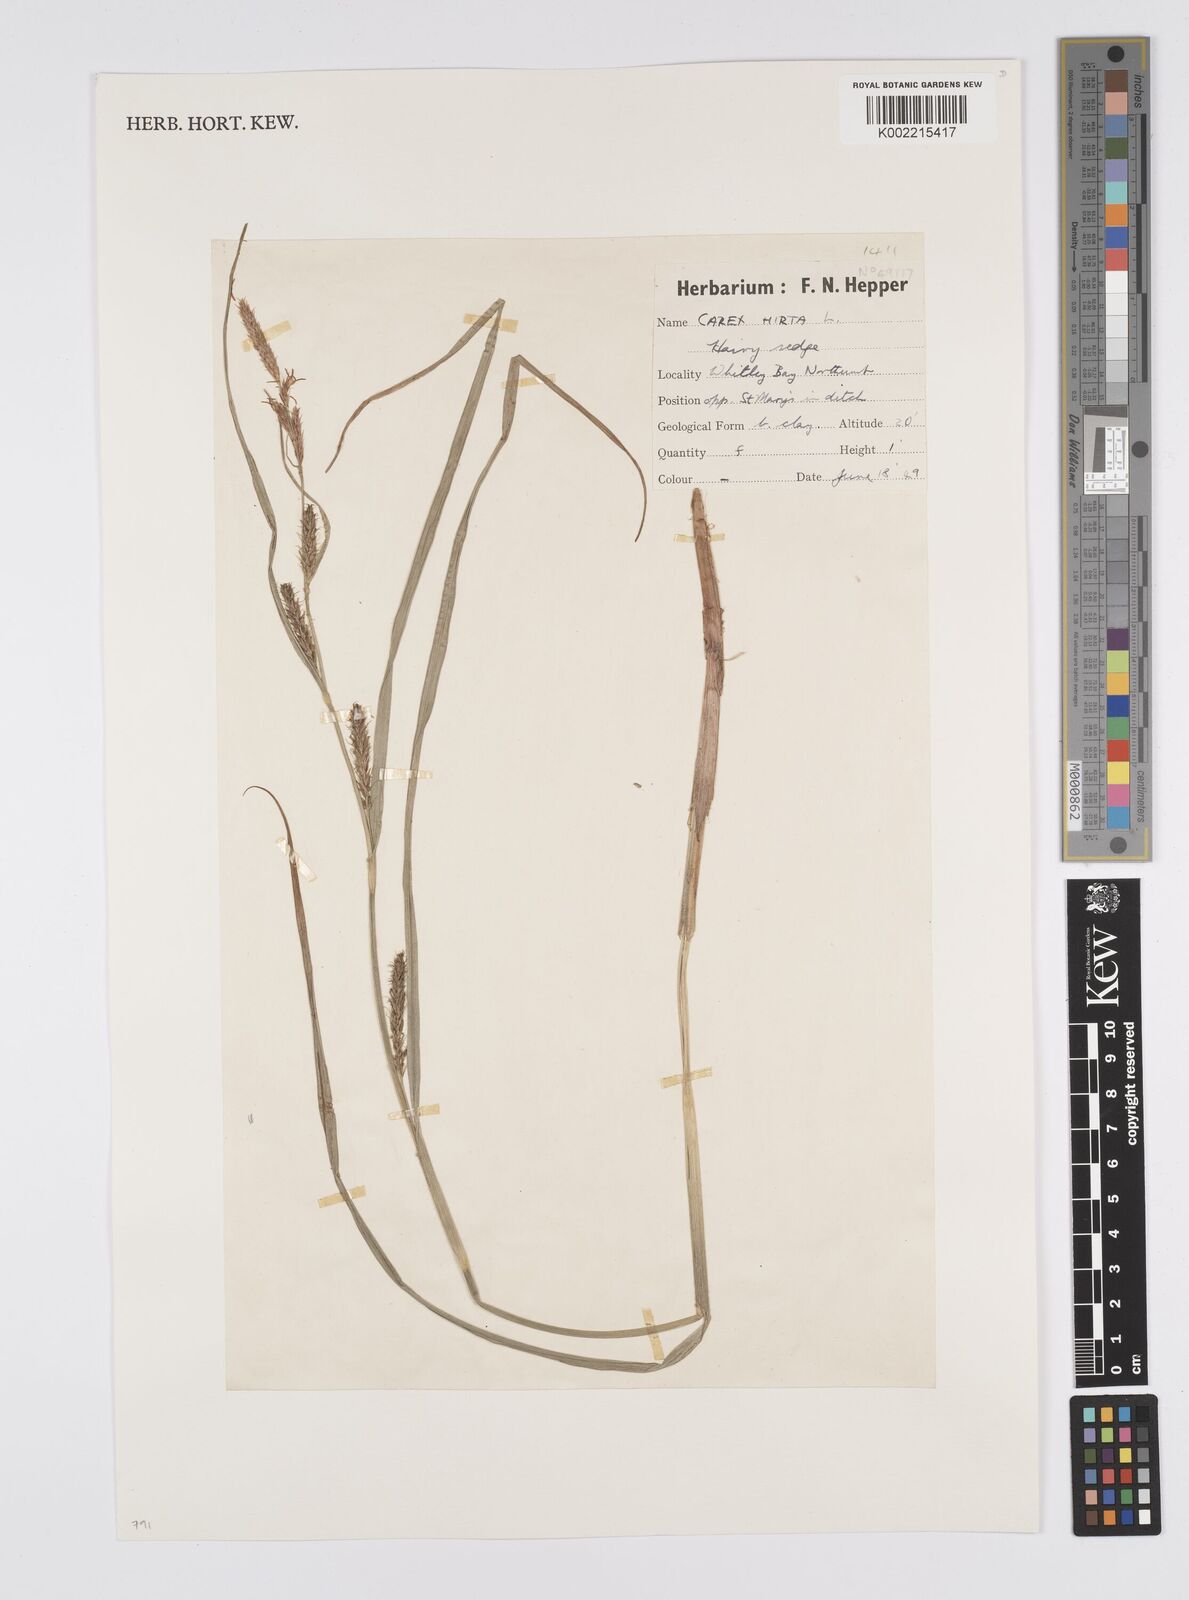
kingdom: Plantae
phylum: Tracheophyta
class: Liliopsida
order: Poales
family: Cyperaceae
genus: Carex
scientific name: Carex hirta
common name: Hairy sedge
